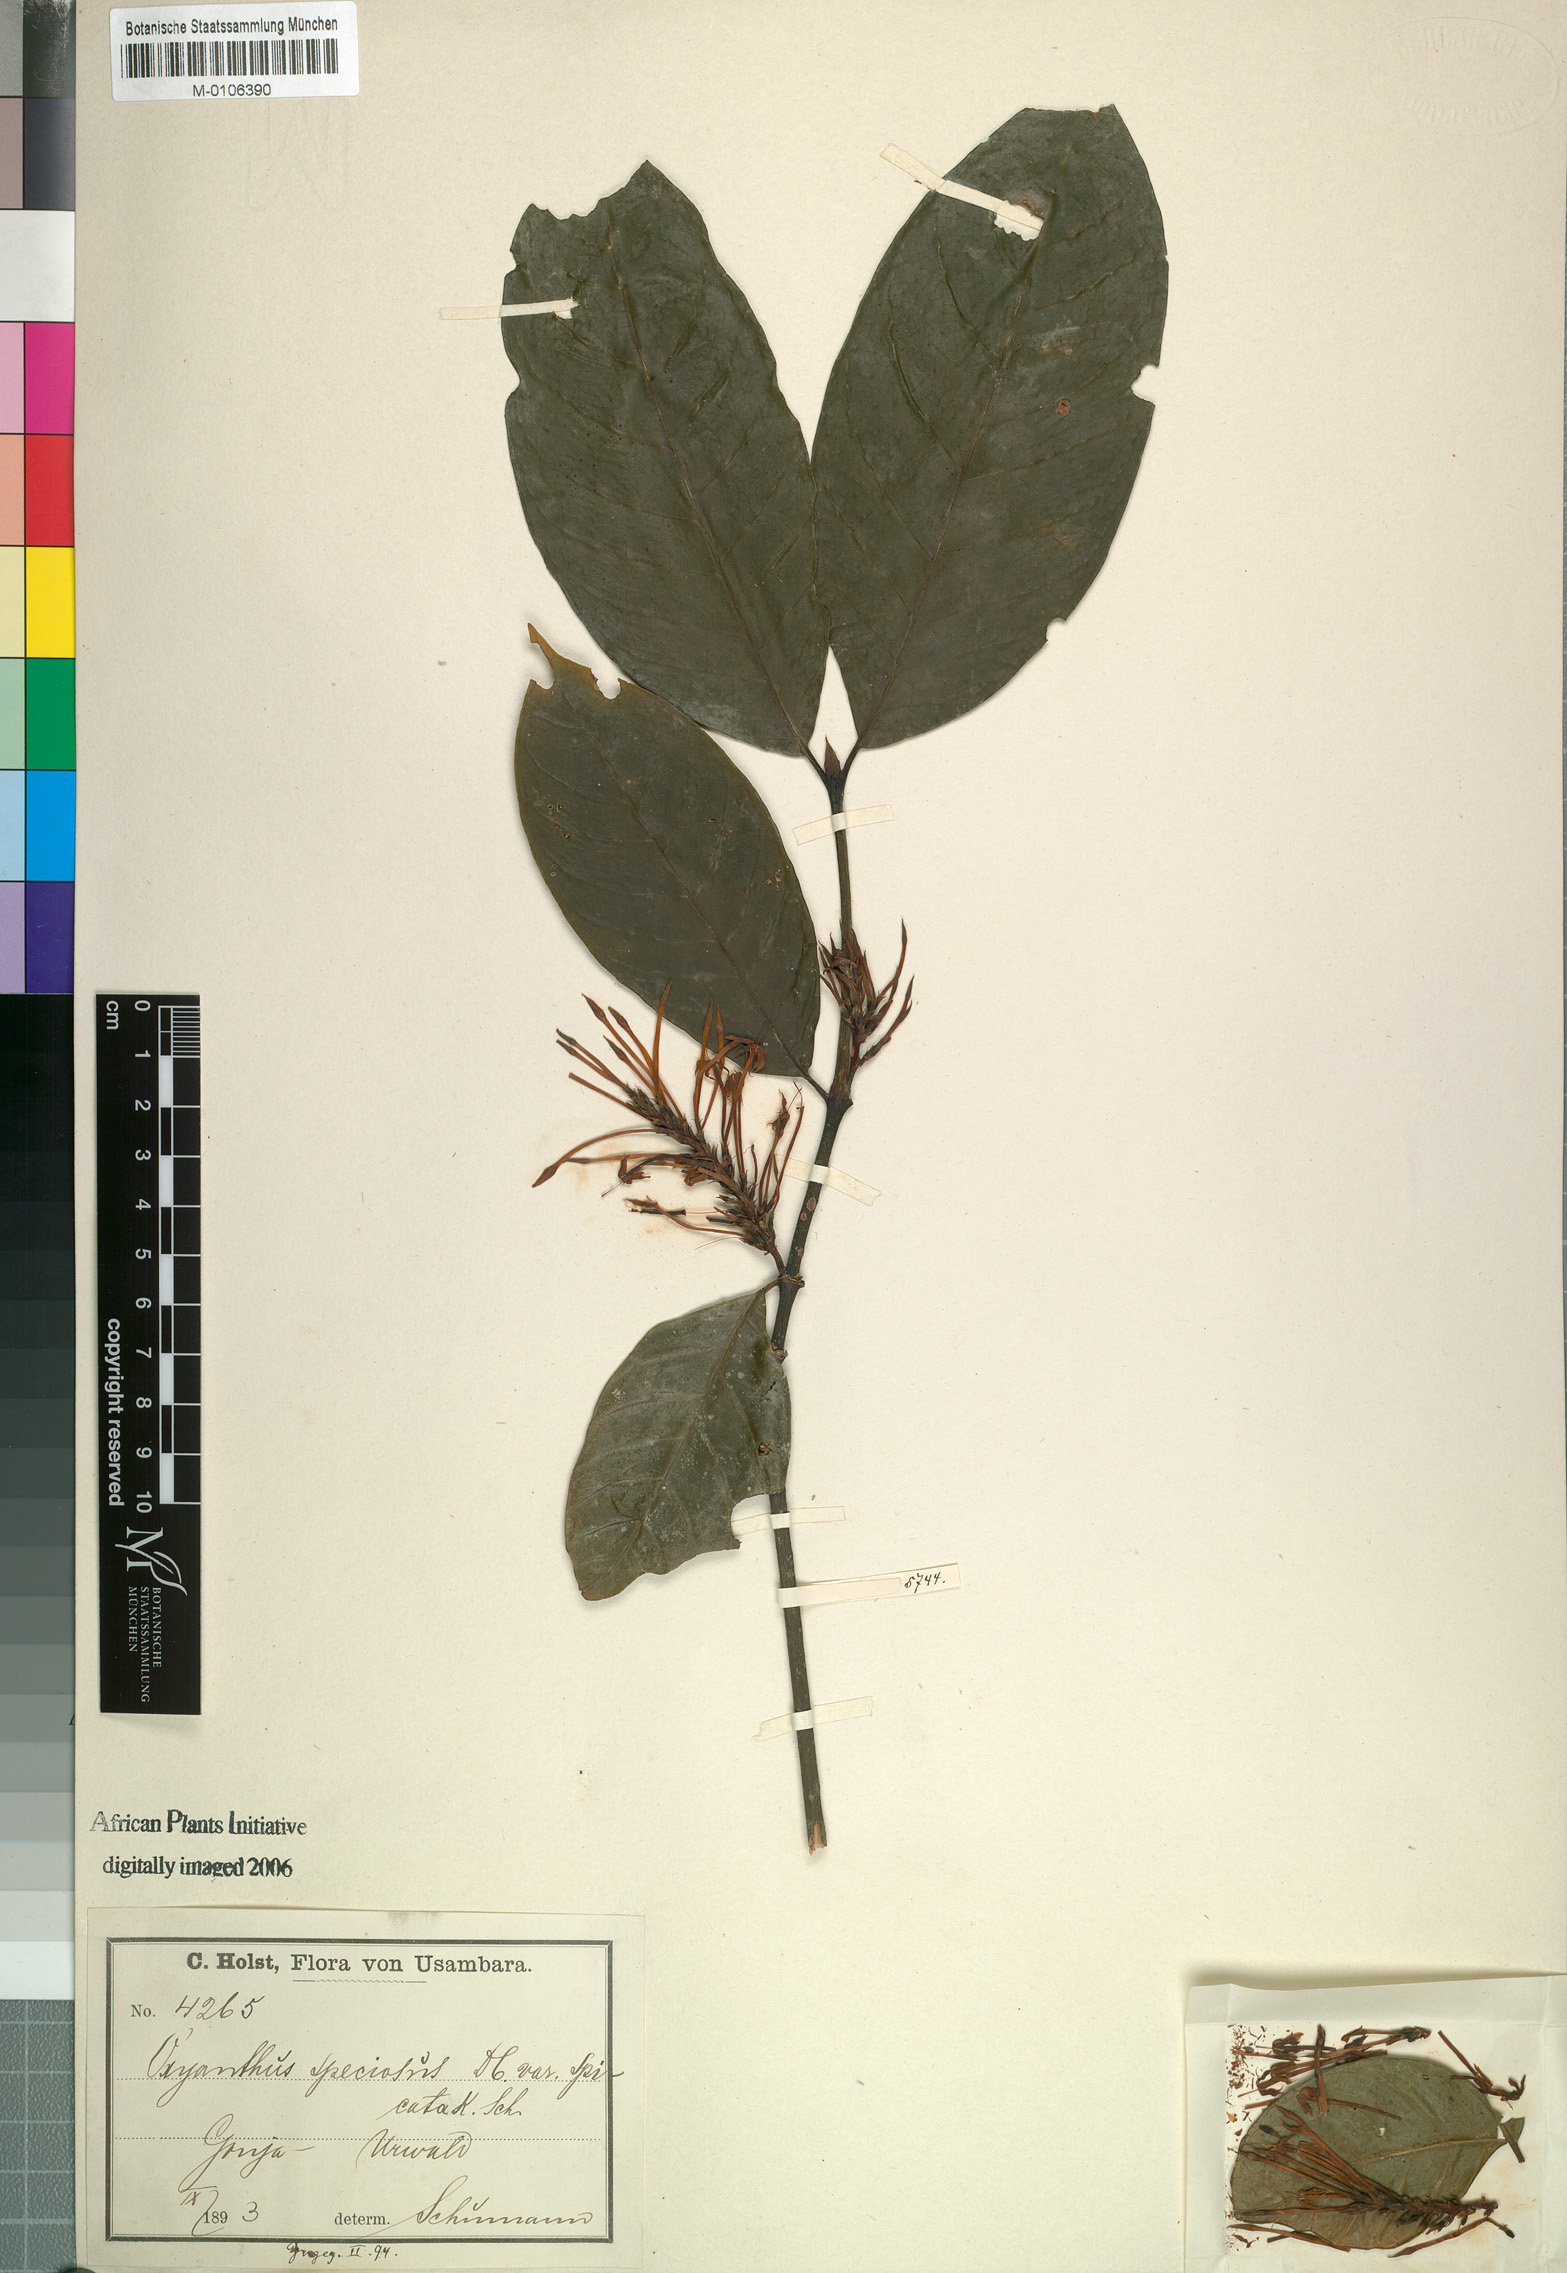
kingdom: Plantae
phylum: Tracheophyta
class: Magnoliopsida
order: Gentianales
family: Rubiaceae
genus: Oxyanthus
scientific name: Oxyanthus speciosus
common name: Whipstick loquat
